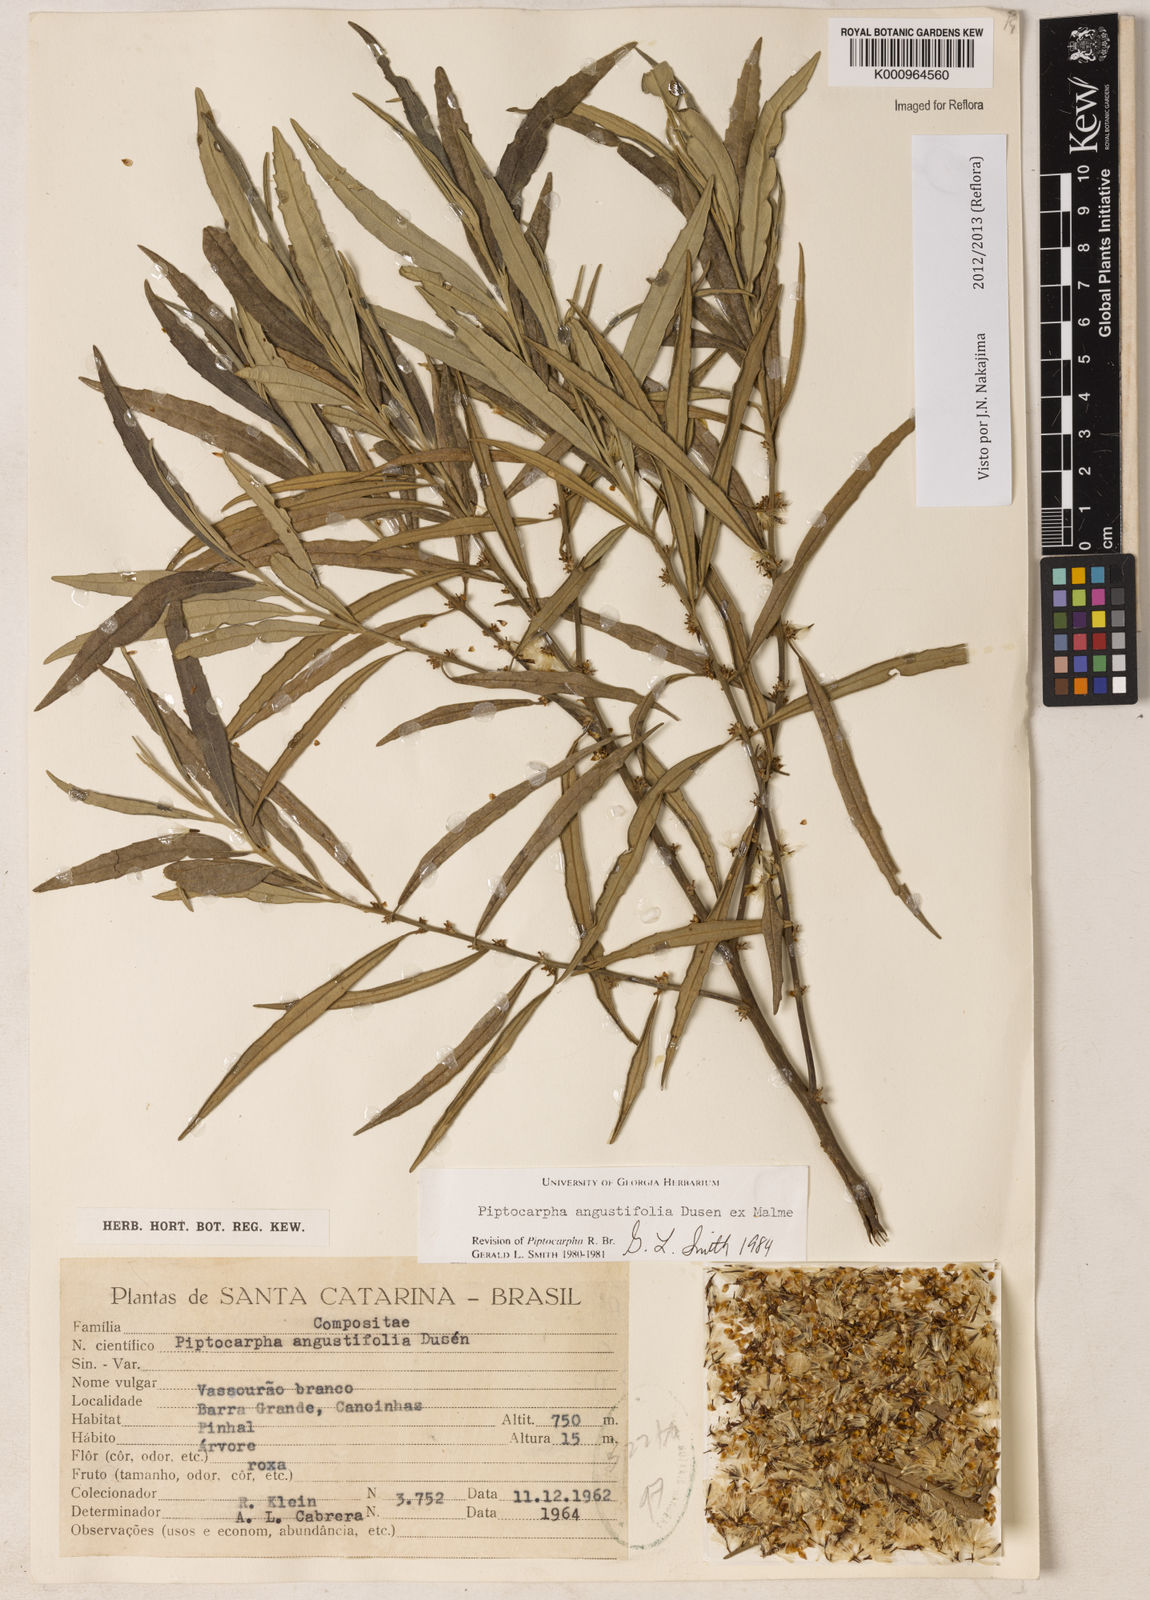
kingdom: Plantae
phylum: Tracheophyta
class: Magnoliopsida
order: Asterales
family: Asteraceae
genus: Piptocarpha
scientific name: Piptocarpha
